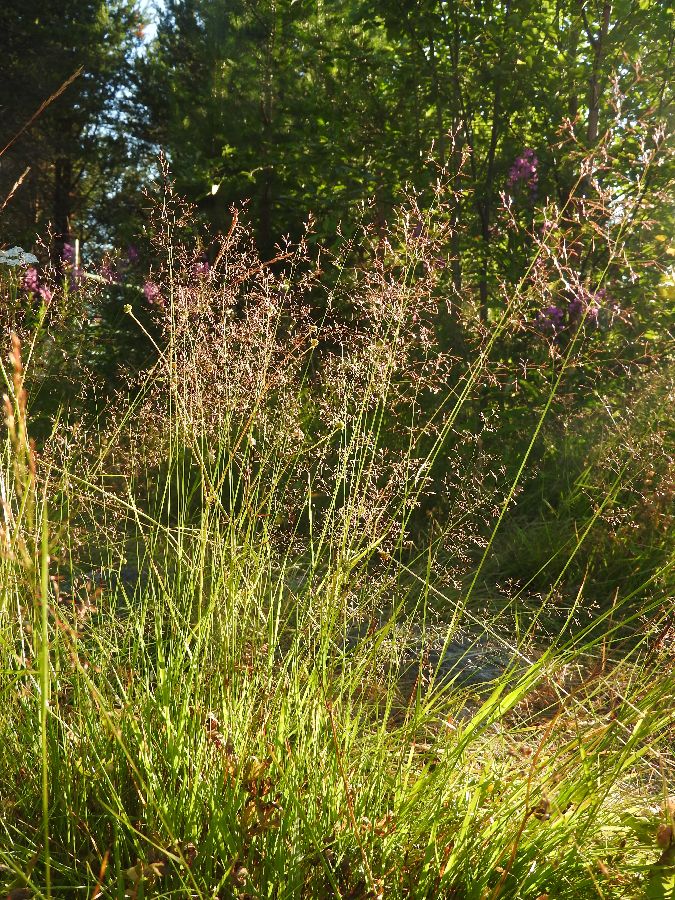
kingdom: Plantae
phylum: Tracheophyta
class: Liliopsida
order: Poales
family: Poaceae
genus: Agrostis
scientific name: Agrostis gigantea
